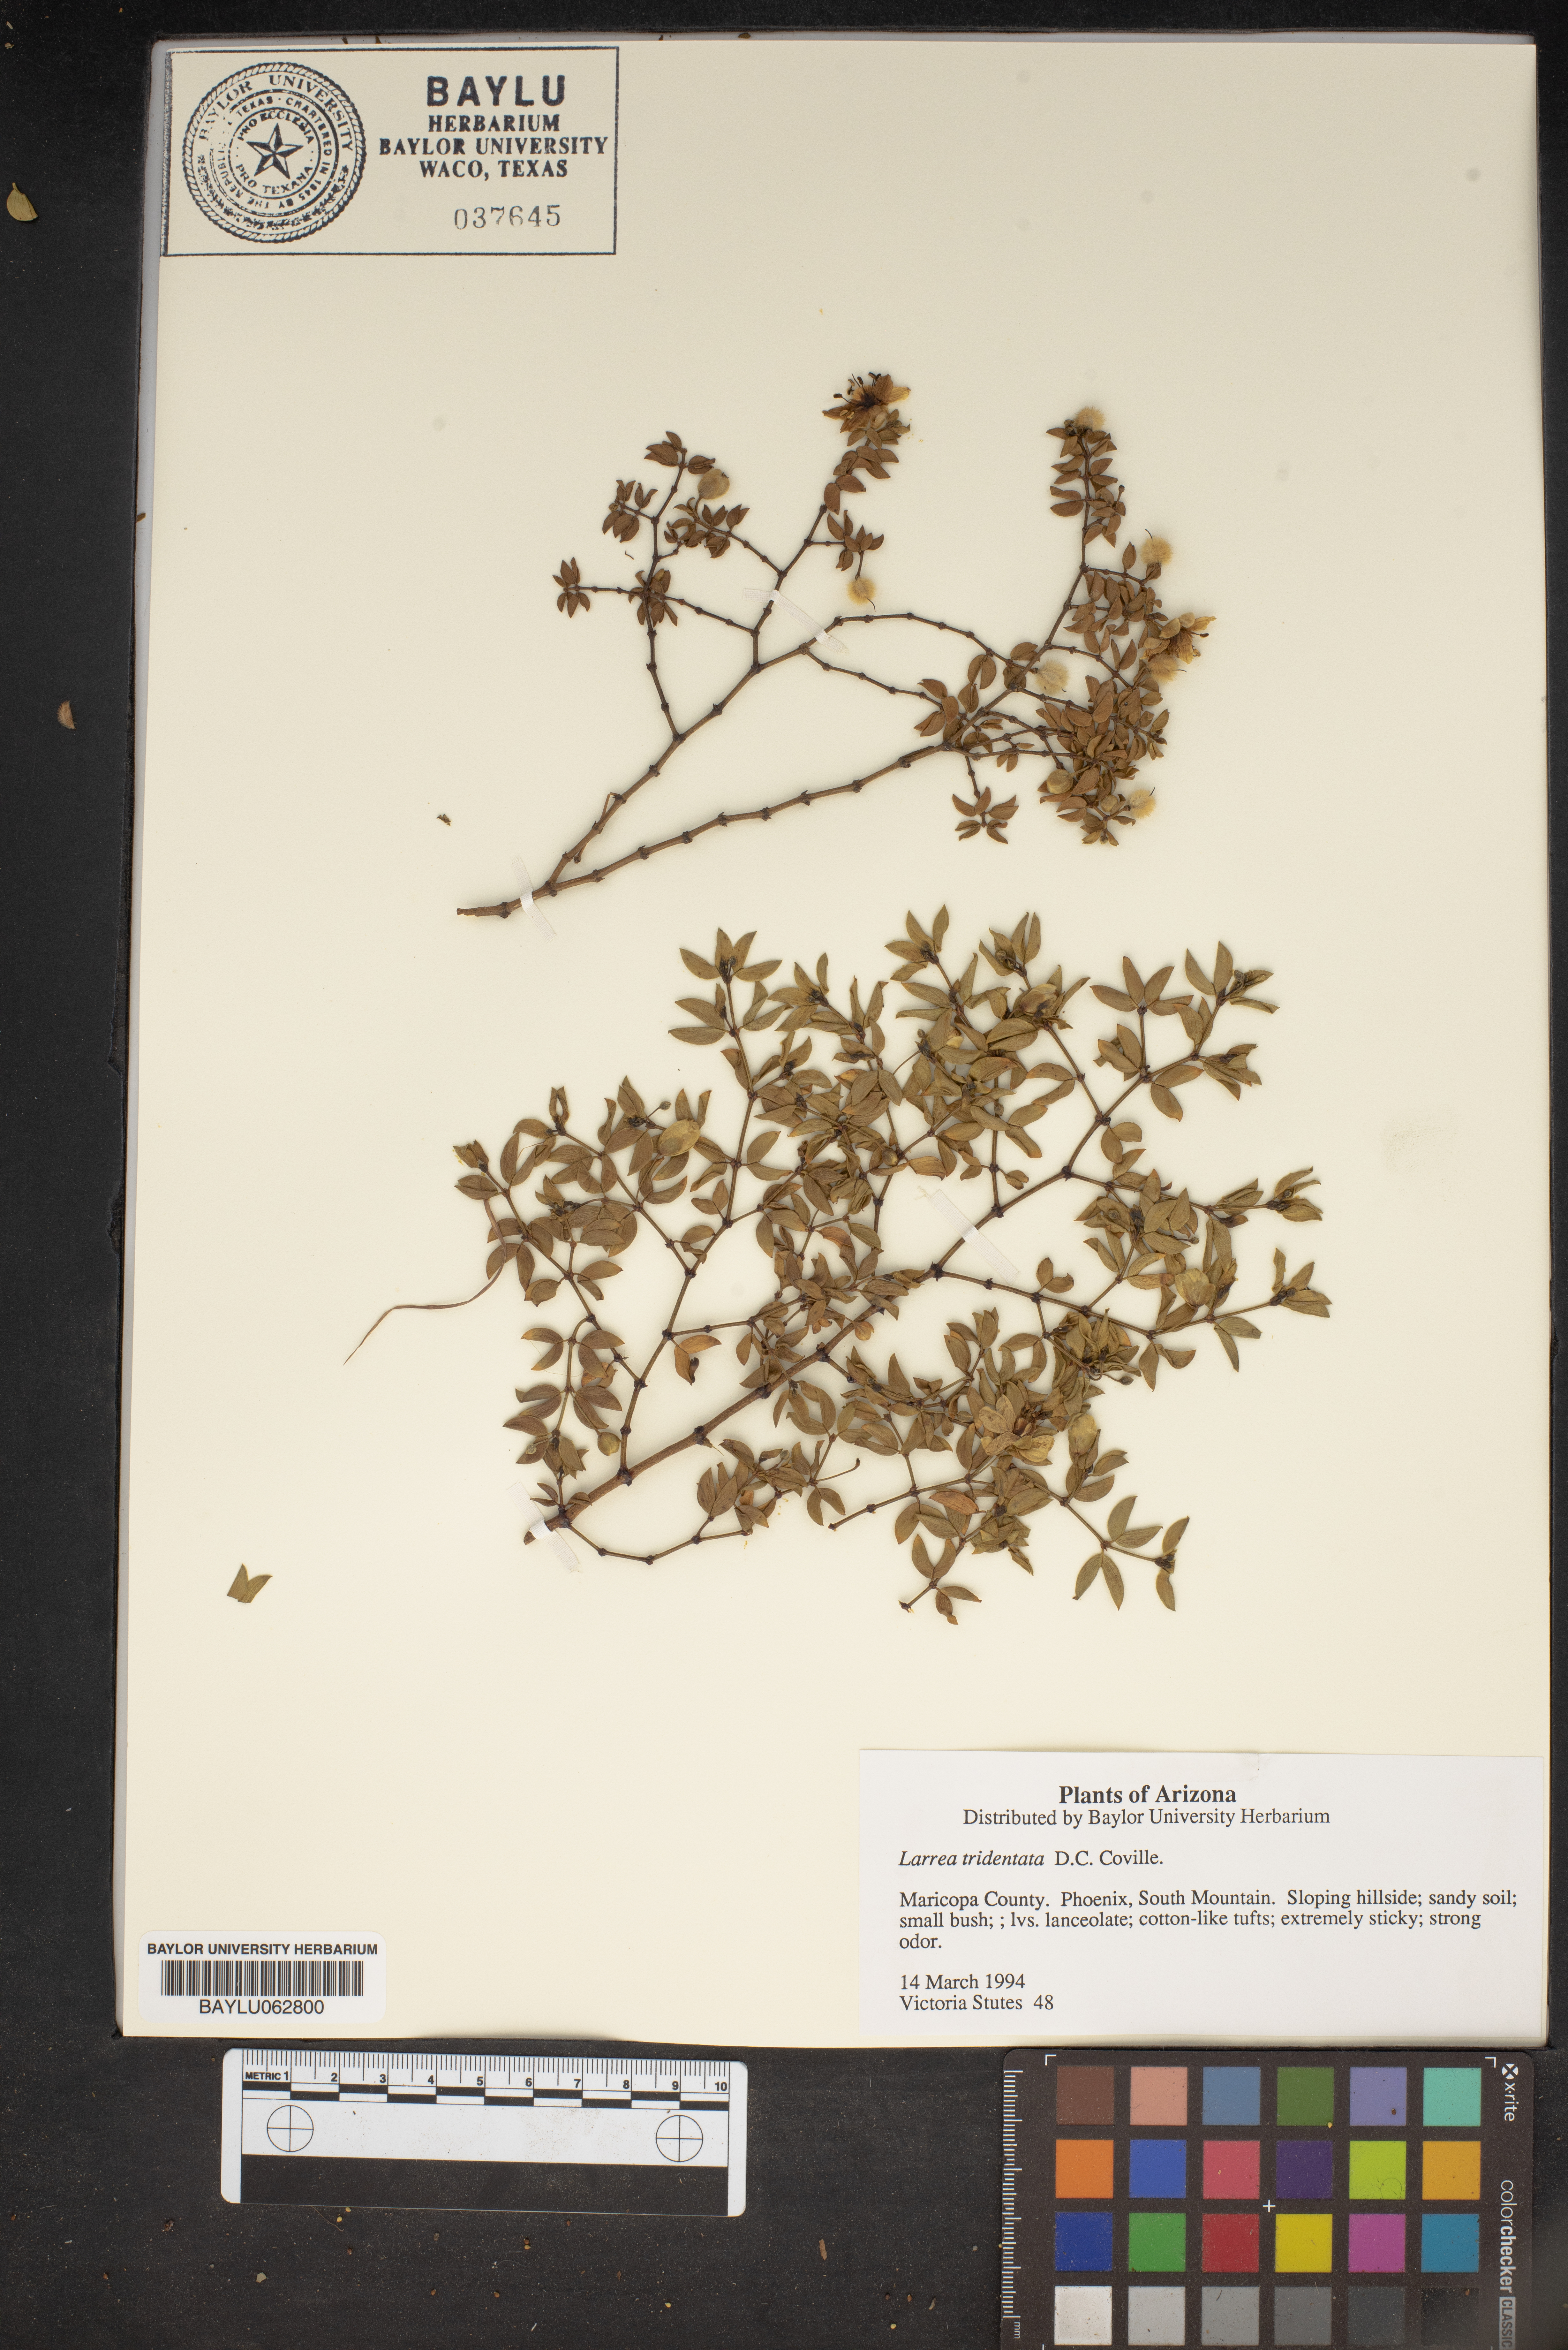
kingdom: Plantae
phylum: Tracheophyta
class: Magnoliopsida
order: Zygophyllales
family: Zygophyllaceae
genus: Larrea
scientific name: Larrea tridentata
